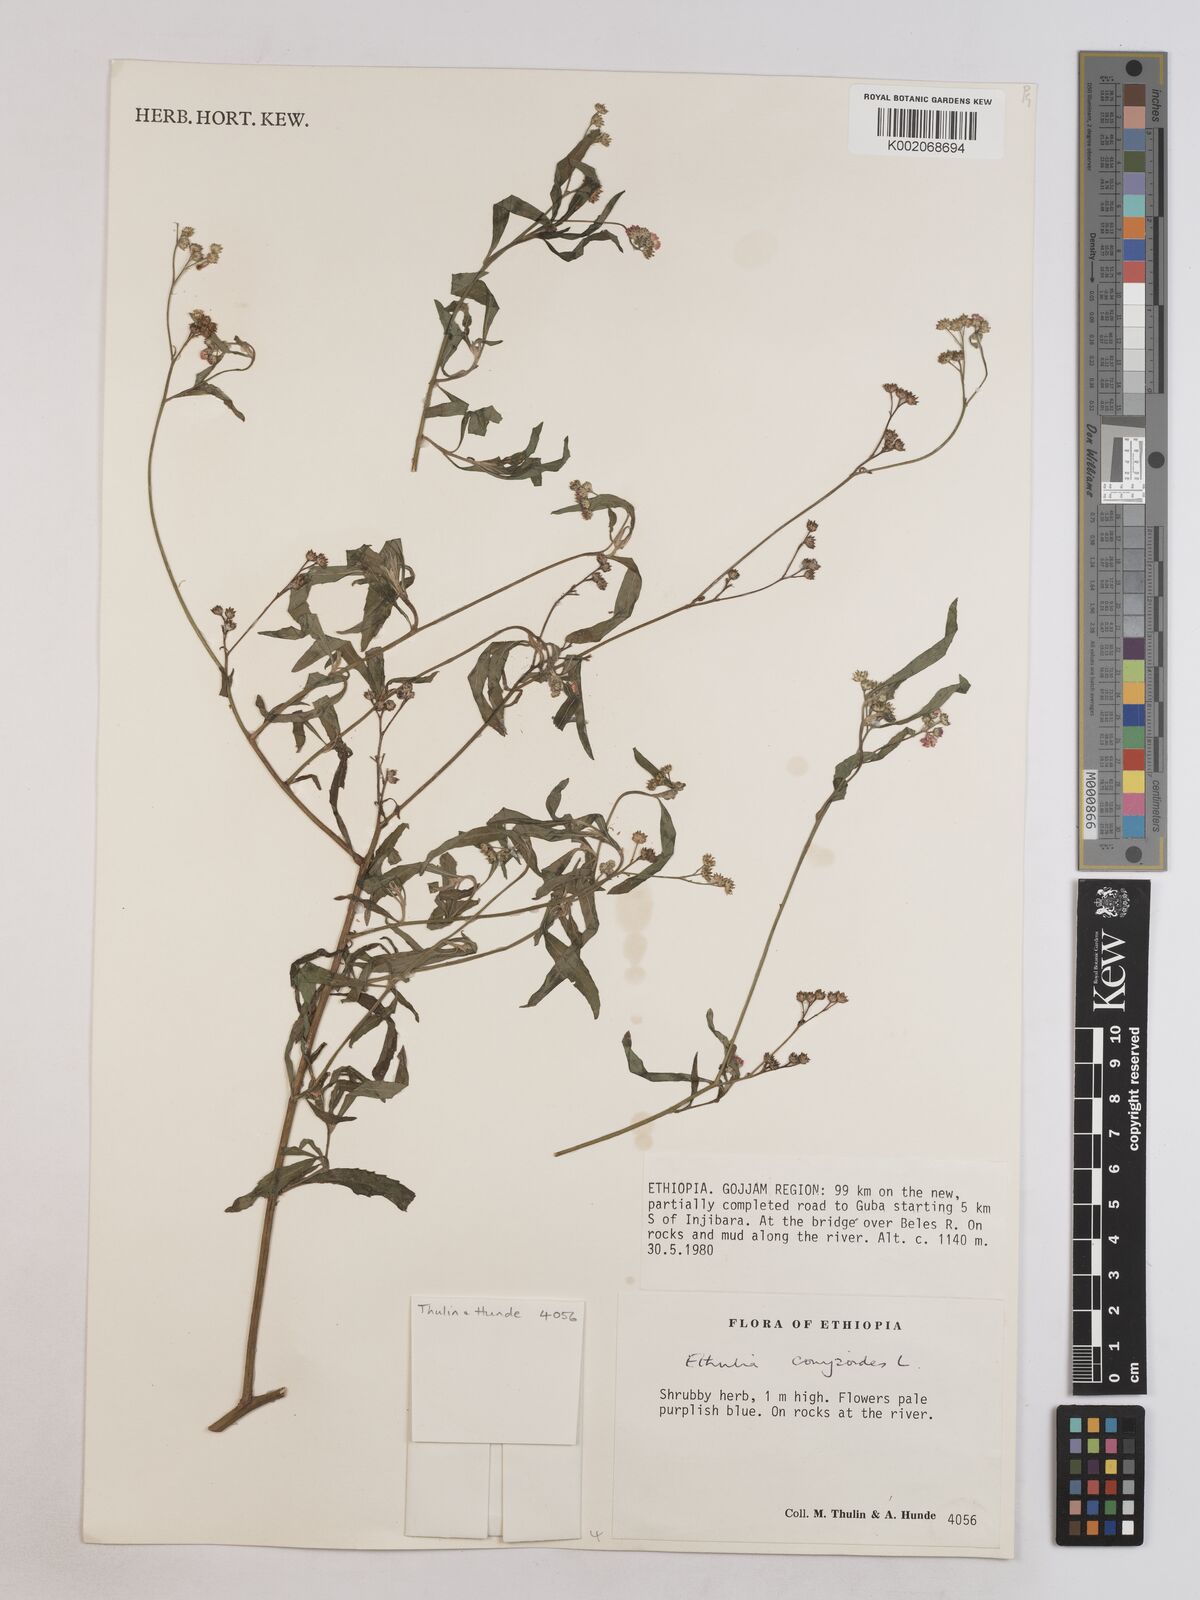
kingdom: Plantae
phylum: Tracheophyta
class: Magnoliopsida
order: Asterales
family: Asteraceae
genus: Ethulia
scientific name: Ethulia gracilis
